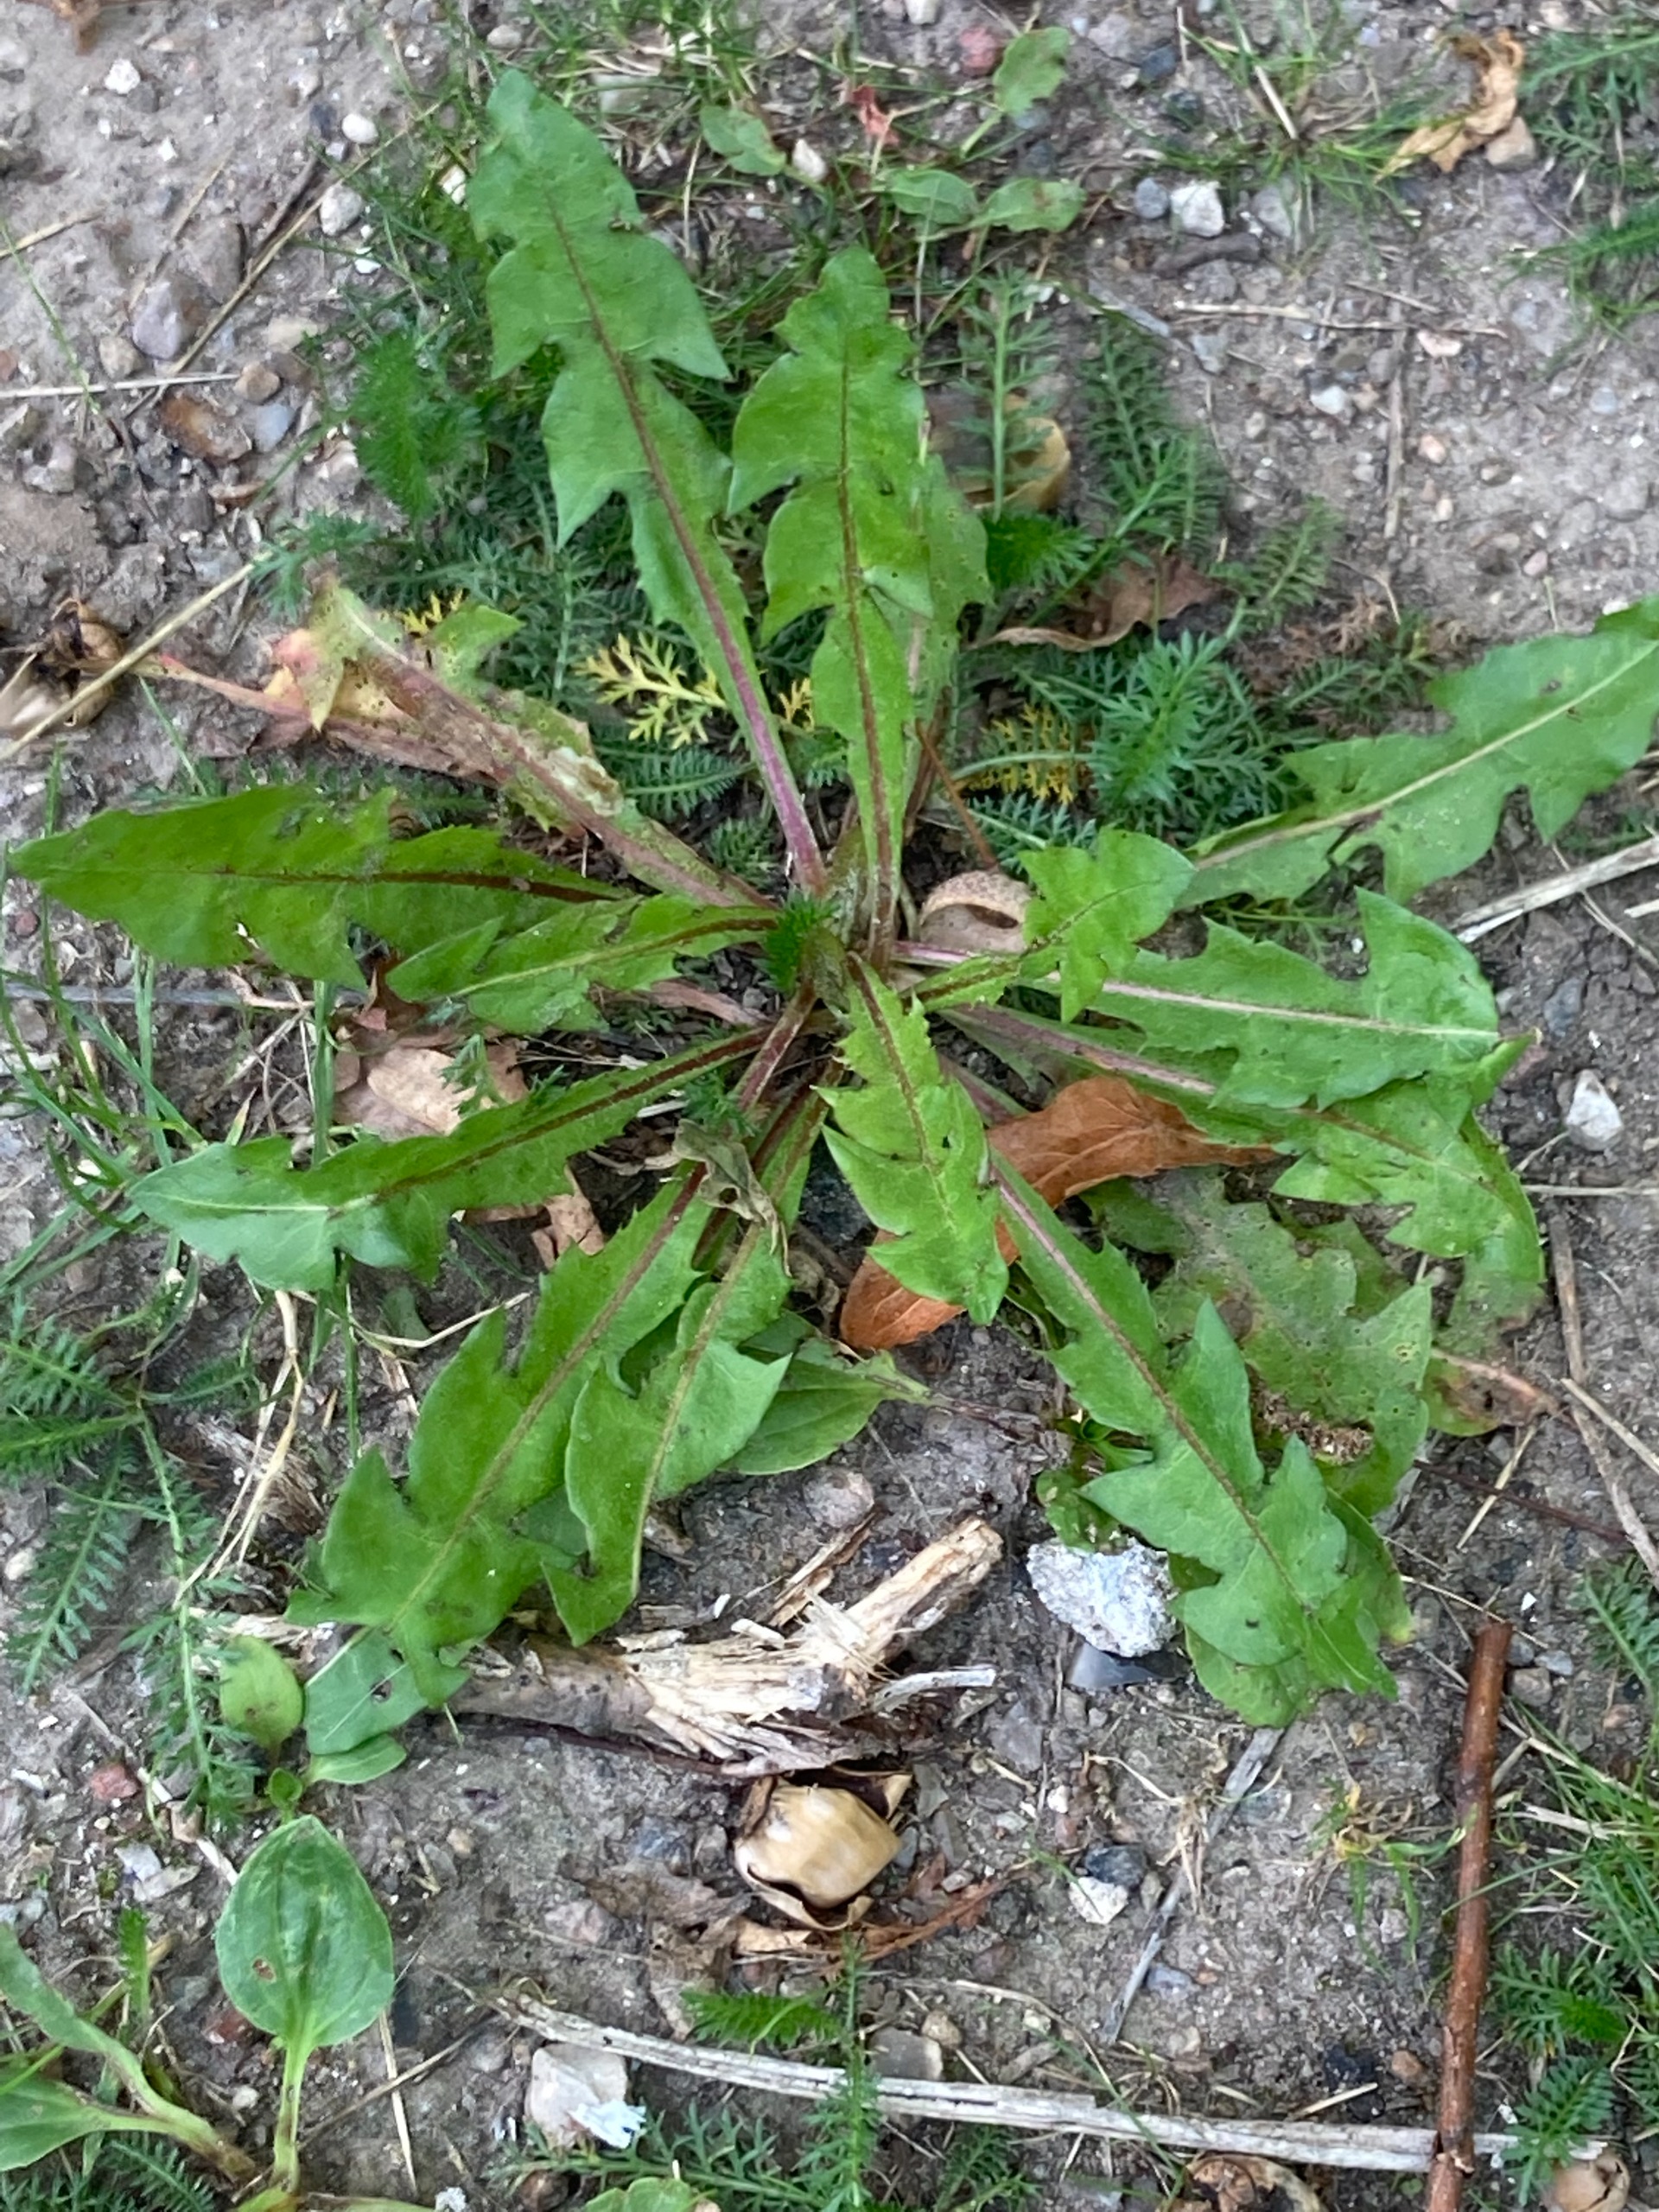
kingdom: Plantae
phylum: Tracheophyta
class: Magnoliopsida
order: Asterales
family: Asteraceae
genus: Taraxacum
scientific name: Taraxacum
